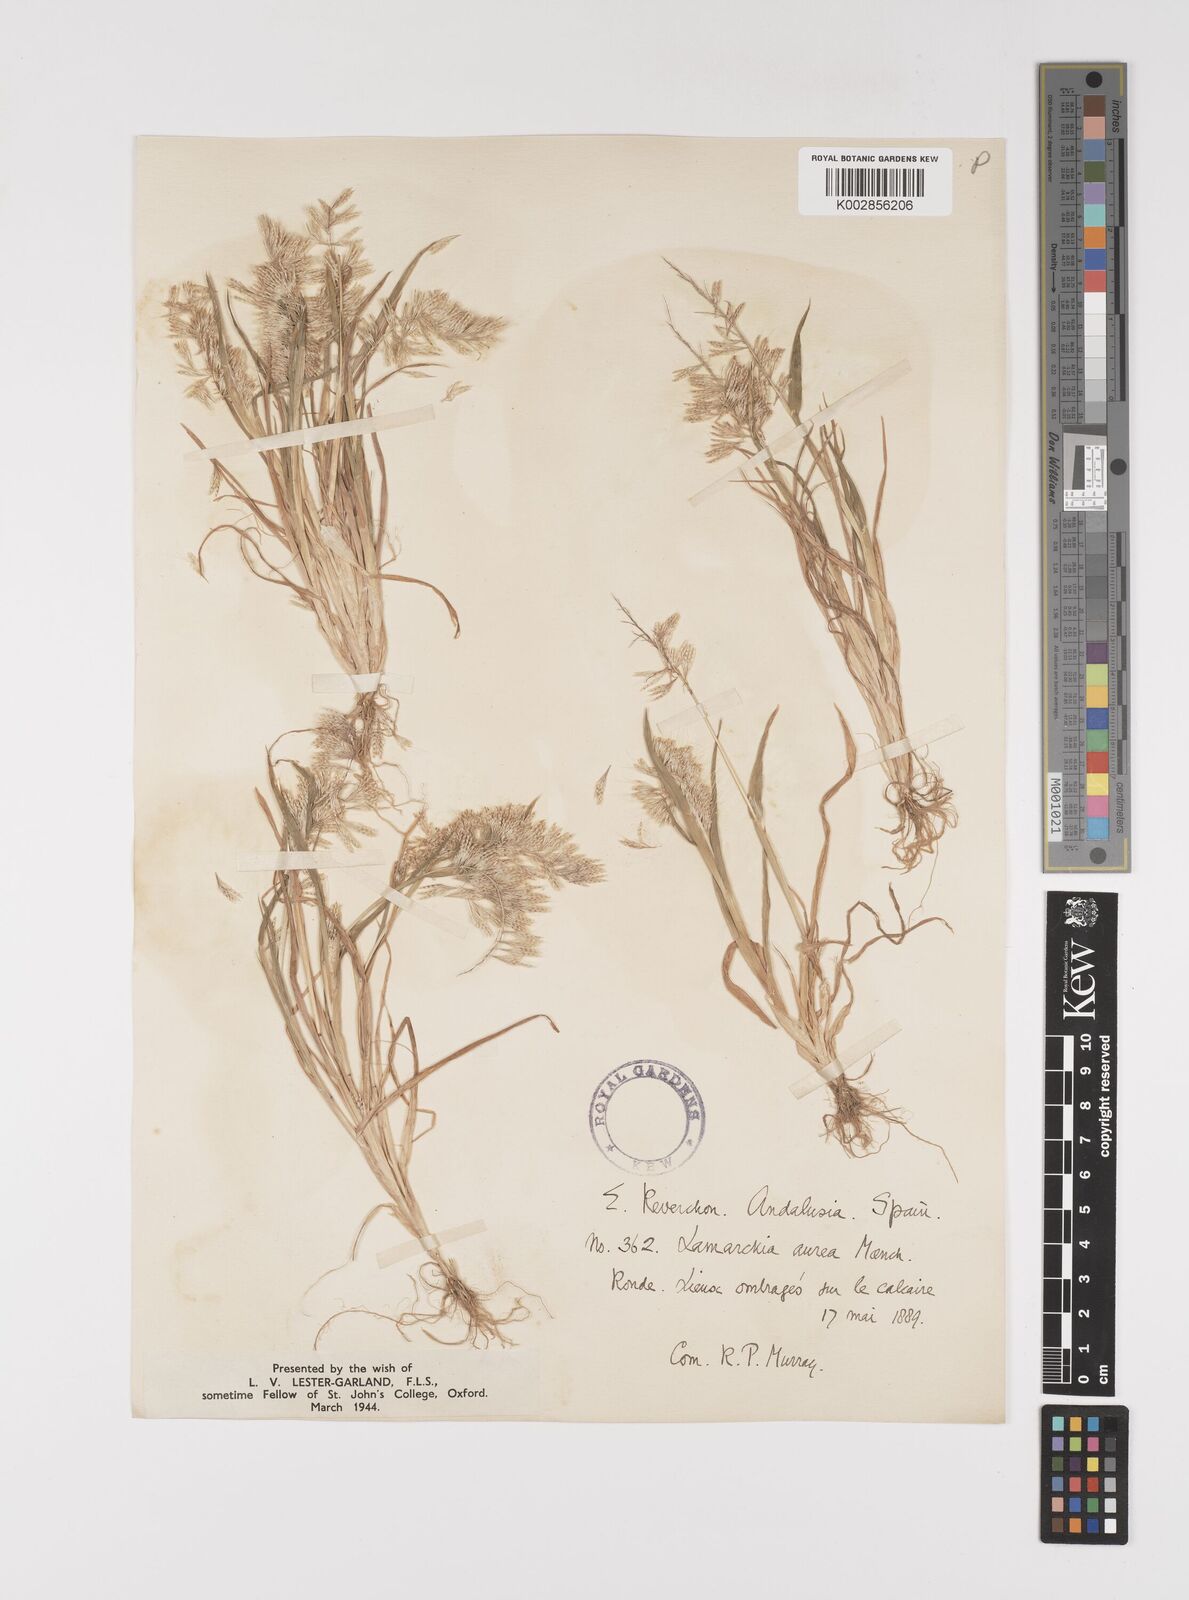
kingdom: Plantae
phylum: Tracheophyta
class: Liliopsida
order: Poales
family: Poaceae
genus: Lamarckia
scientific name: Lamarckia aurea
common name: Golden dog's-tail
